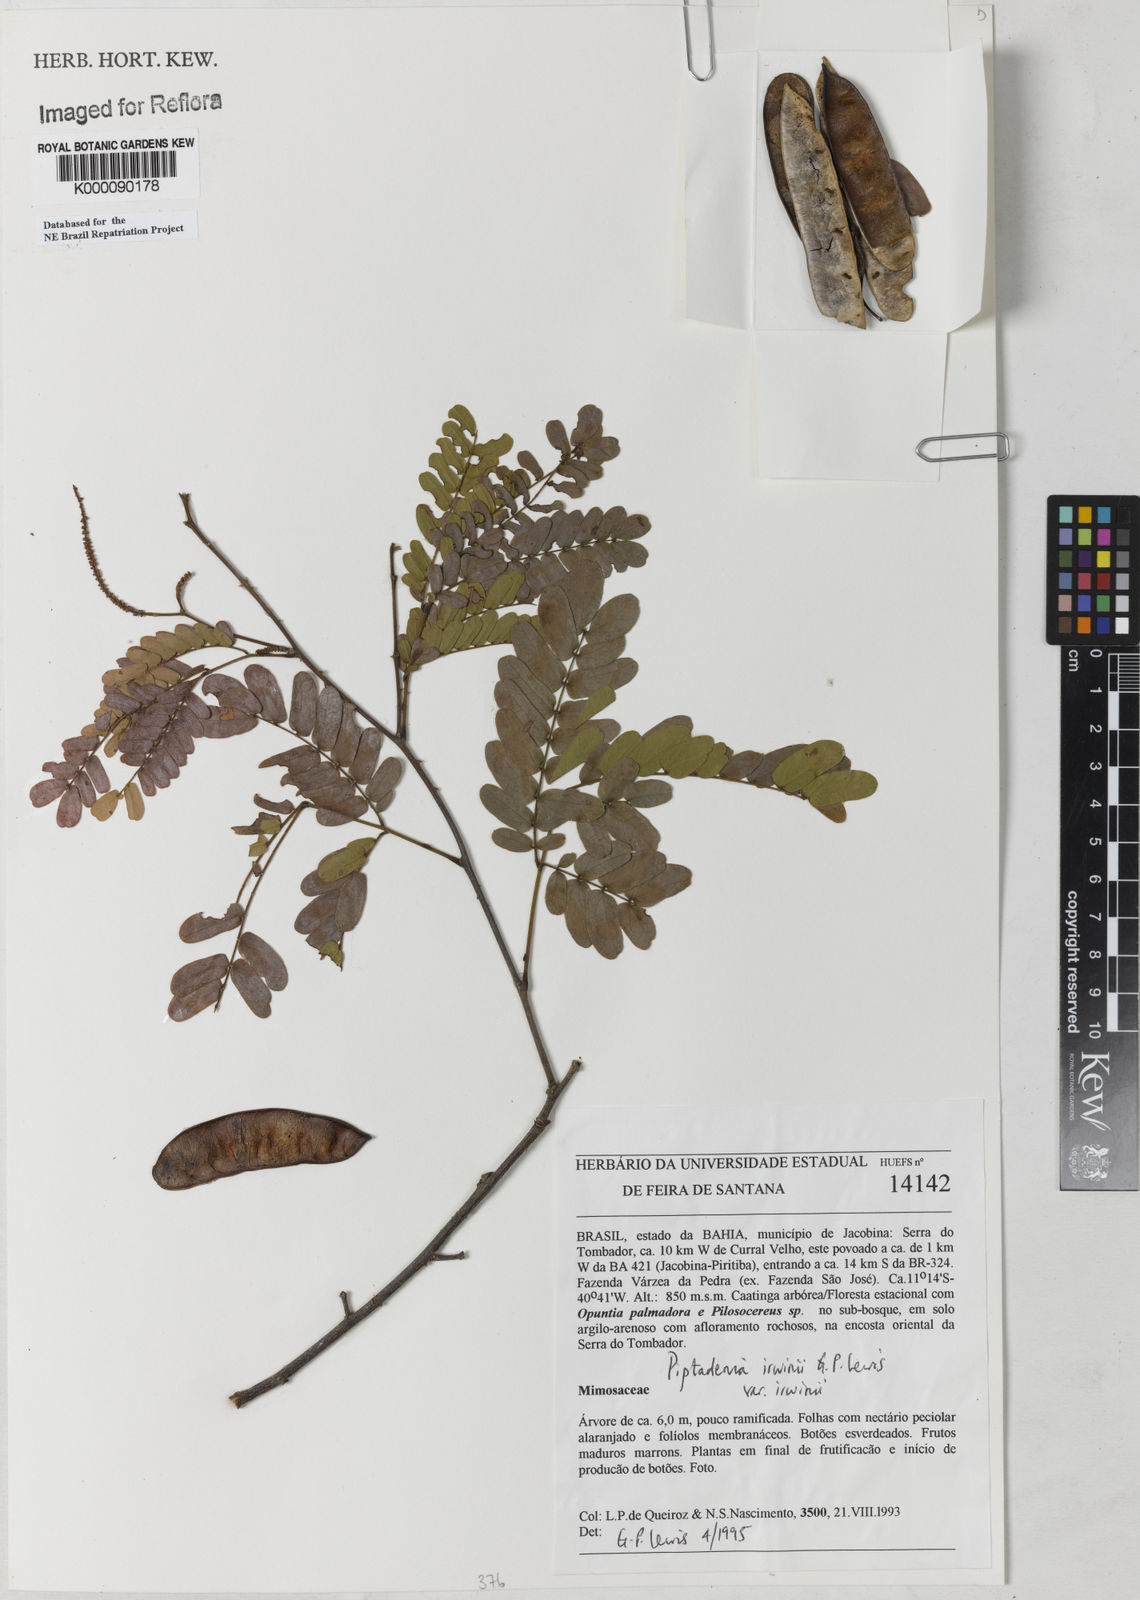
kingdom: Plantae
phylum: Tracheophyta
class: Magnoliopsida
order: Fabales
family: Fabaceae
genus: Piptadenia
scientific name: Piptadenia irwinii
